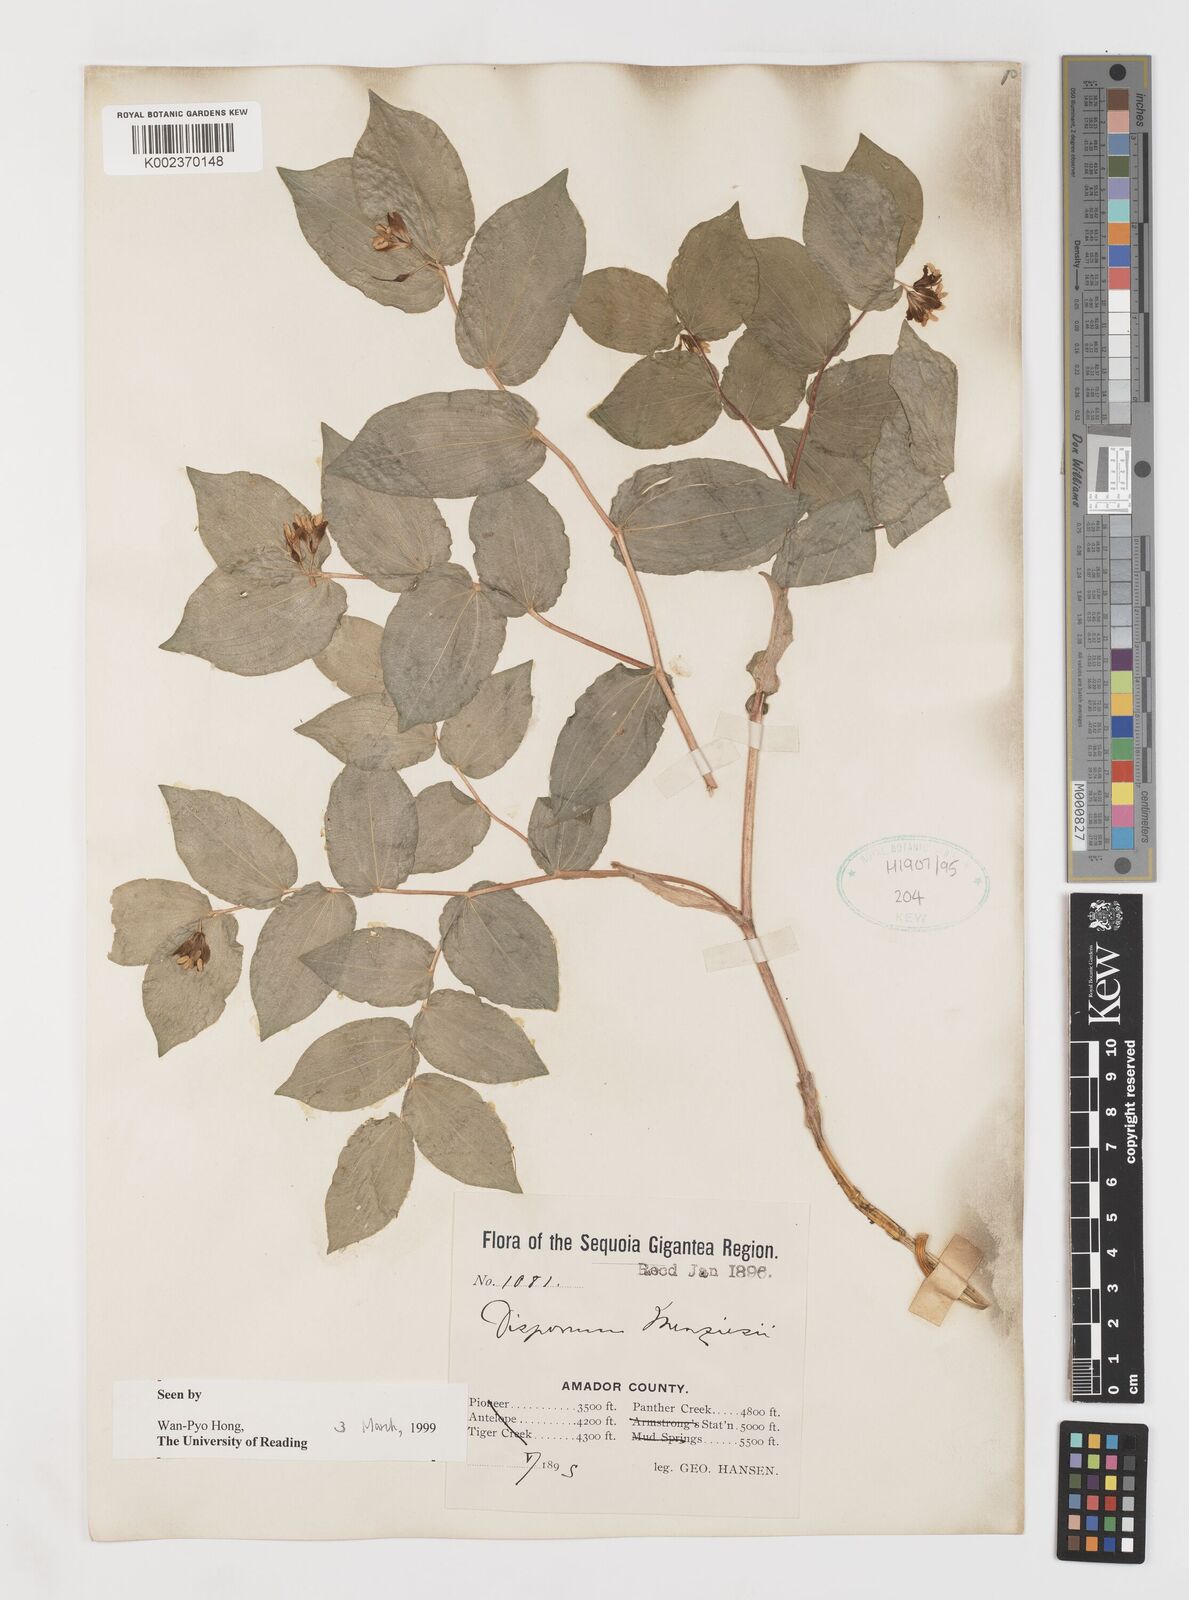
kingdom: Plantae
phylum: Tracheophyta
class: Liliopsida
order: Liliales
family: Liliaceae
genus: Prosartes
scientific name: Prosartes smithii
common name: Fairy-lantern
